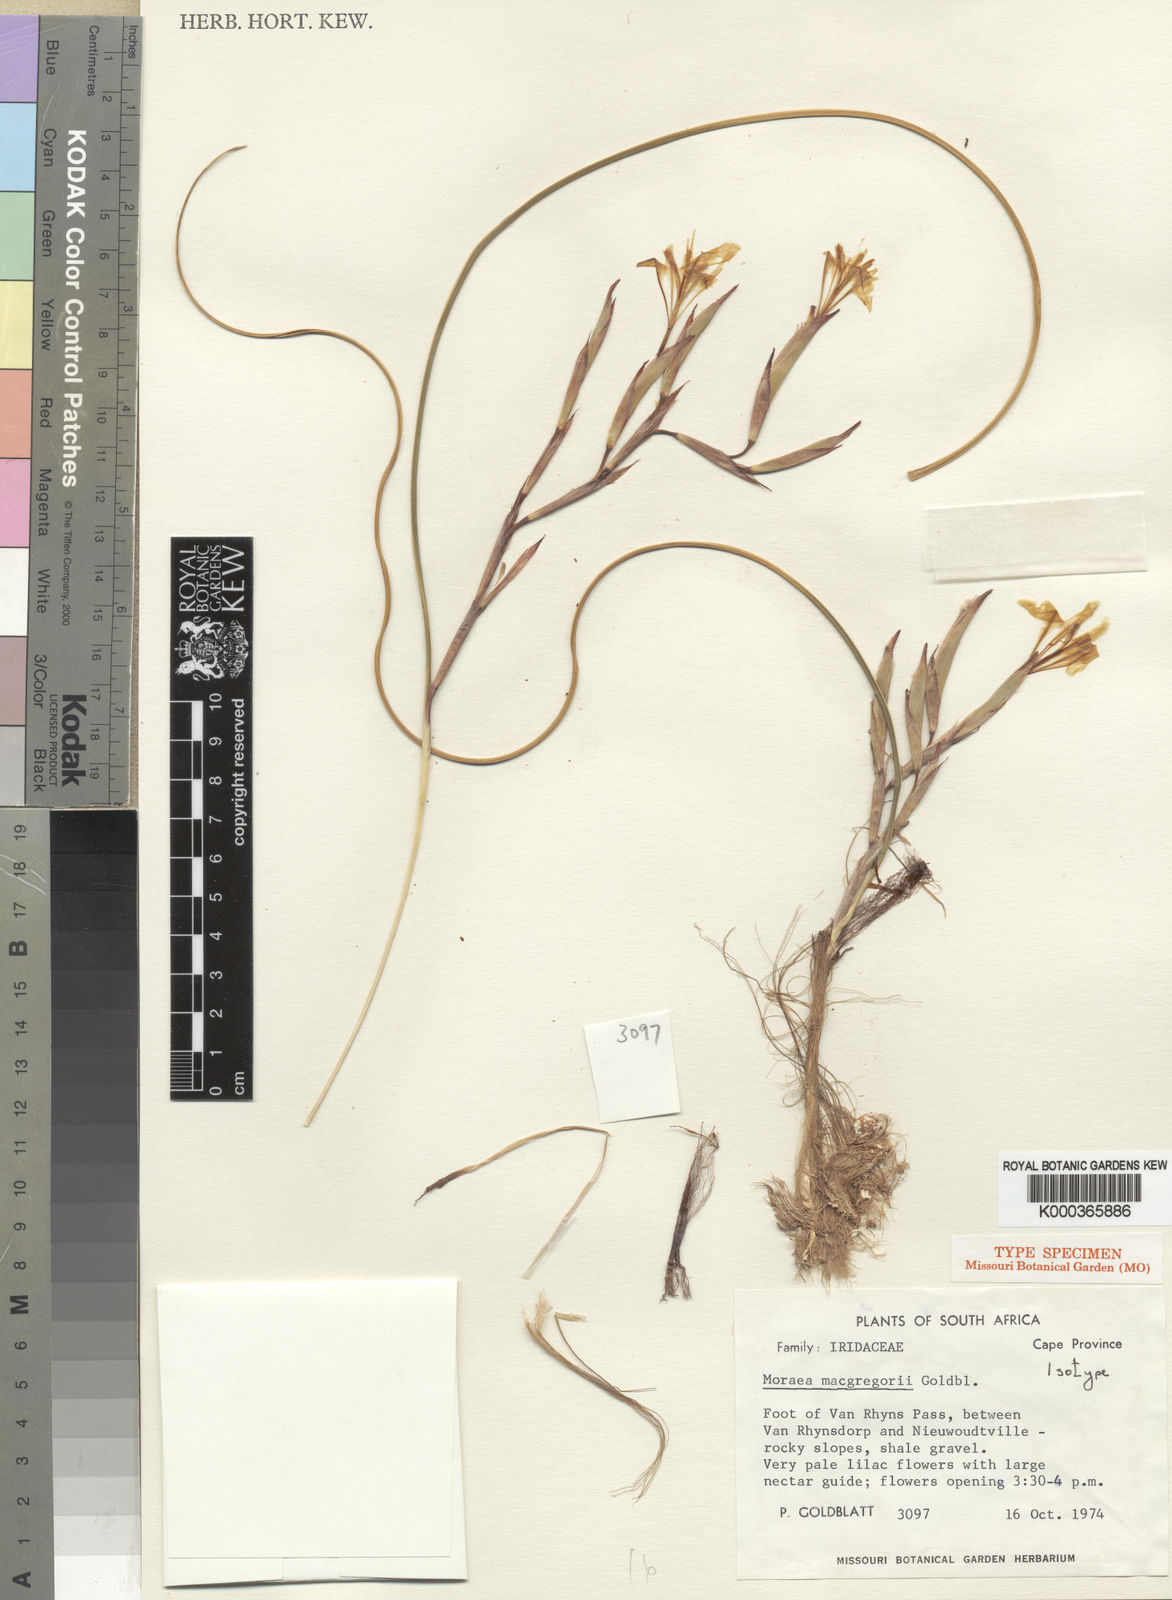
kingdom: Plantae
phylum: Tracheophyta
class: Liliopsida
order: Asparagales
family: Iridaceae
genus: Moraea
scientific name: Moraea macgregorii
